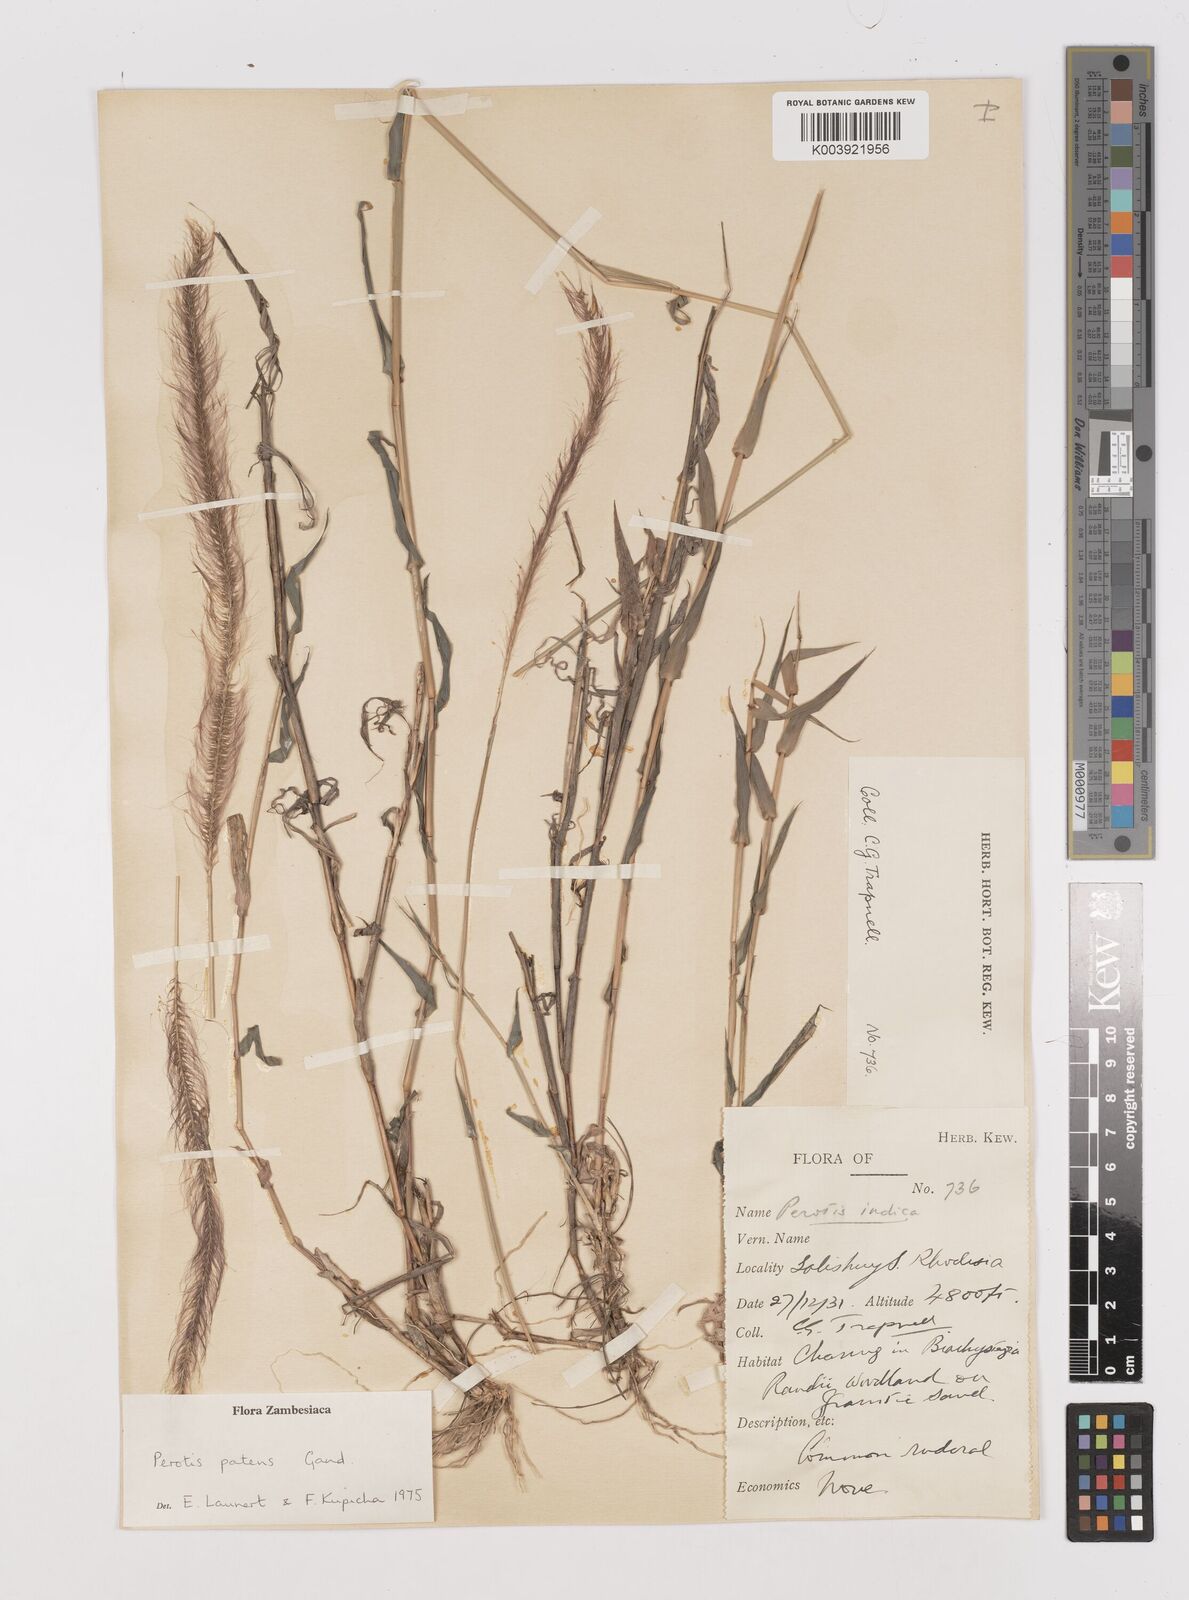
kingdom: Plantae
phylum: Tracheophyta
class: Liliopsida
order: Poales
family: Poaceae
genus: Perotis
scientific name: Perotis patens
